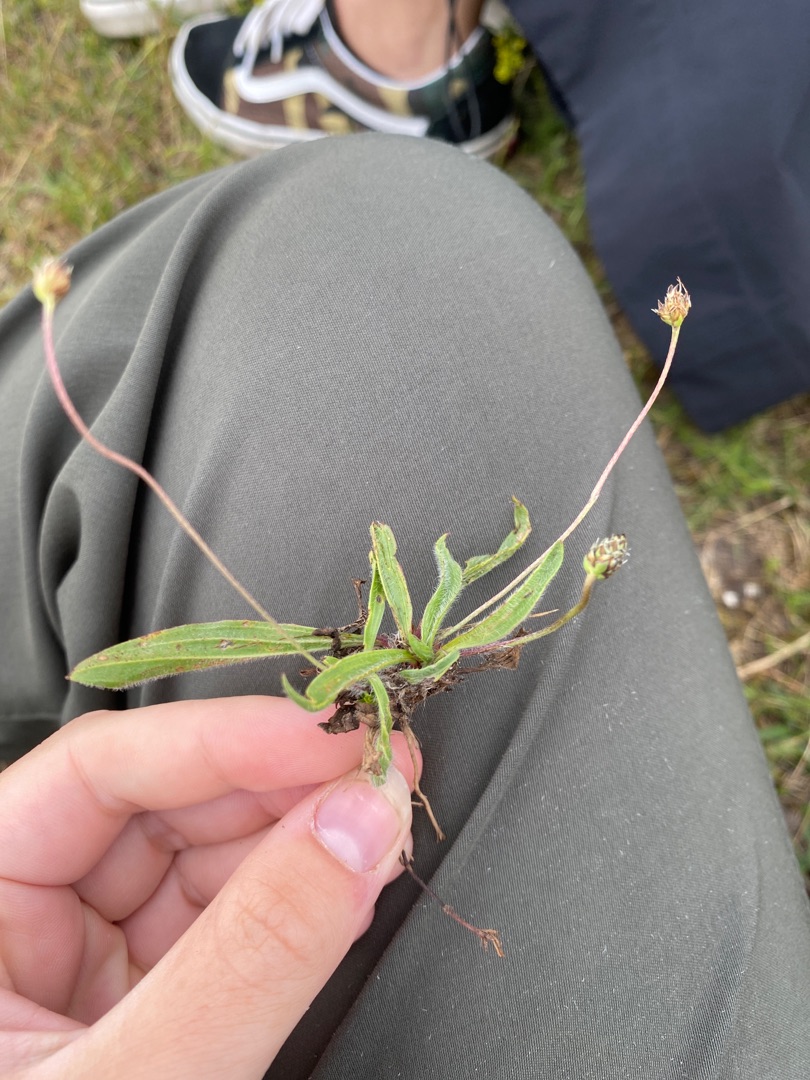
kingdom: Plantae
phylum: Tracheophyta
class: Magnoliopsida
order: Lamiales
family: Plantaginaceae
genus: Plantago
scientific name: Plantago lanceolata
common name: Lancet-vejbred
